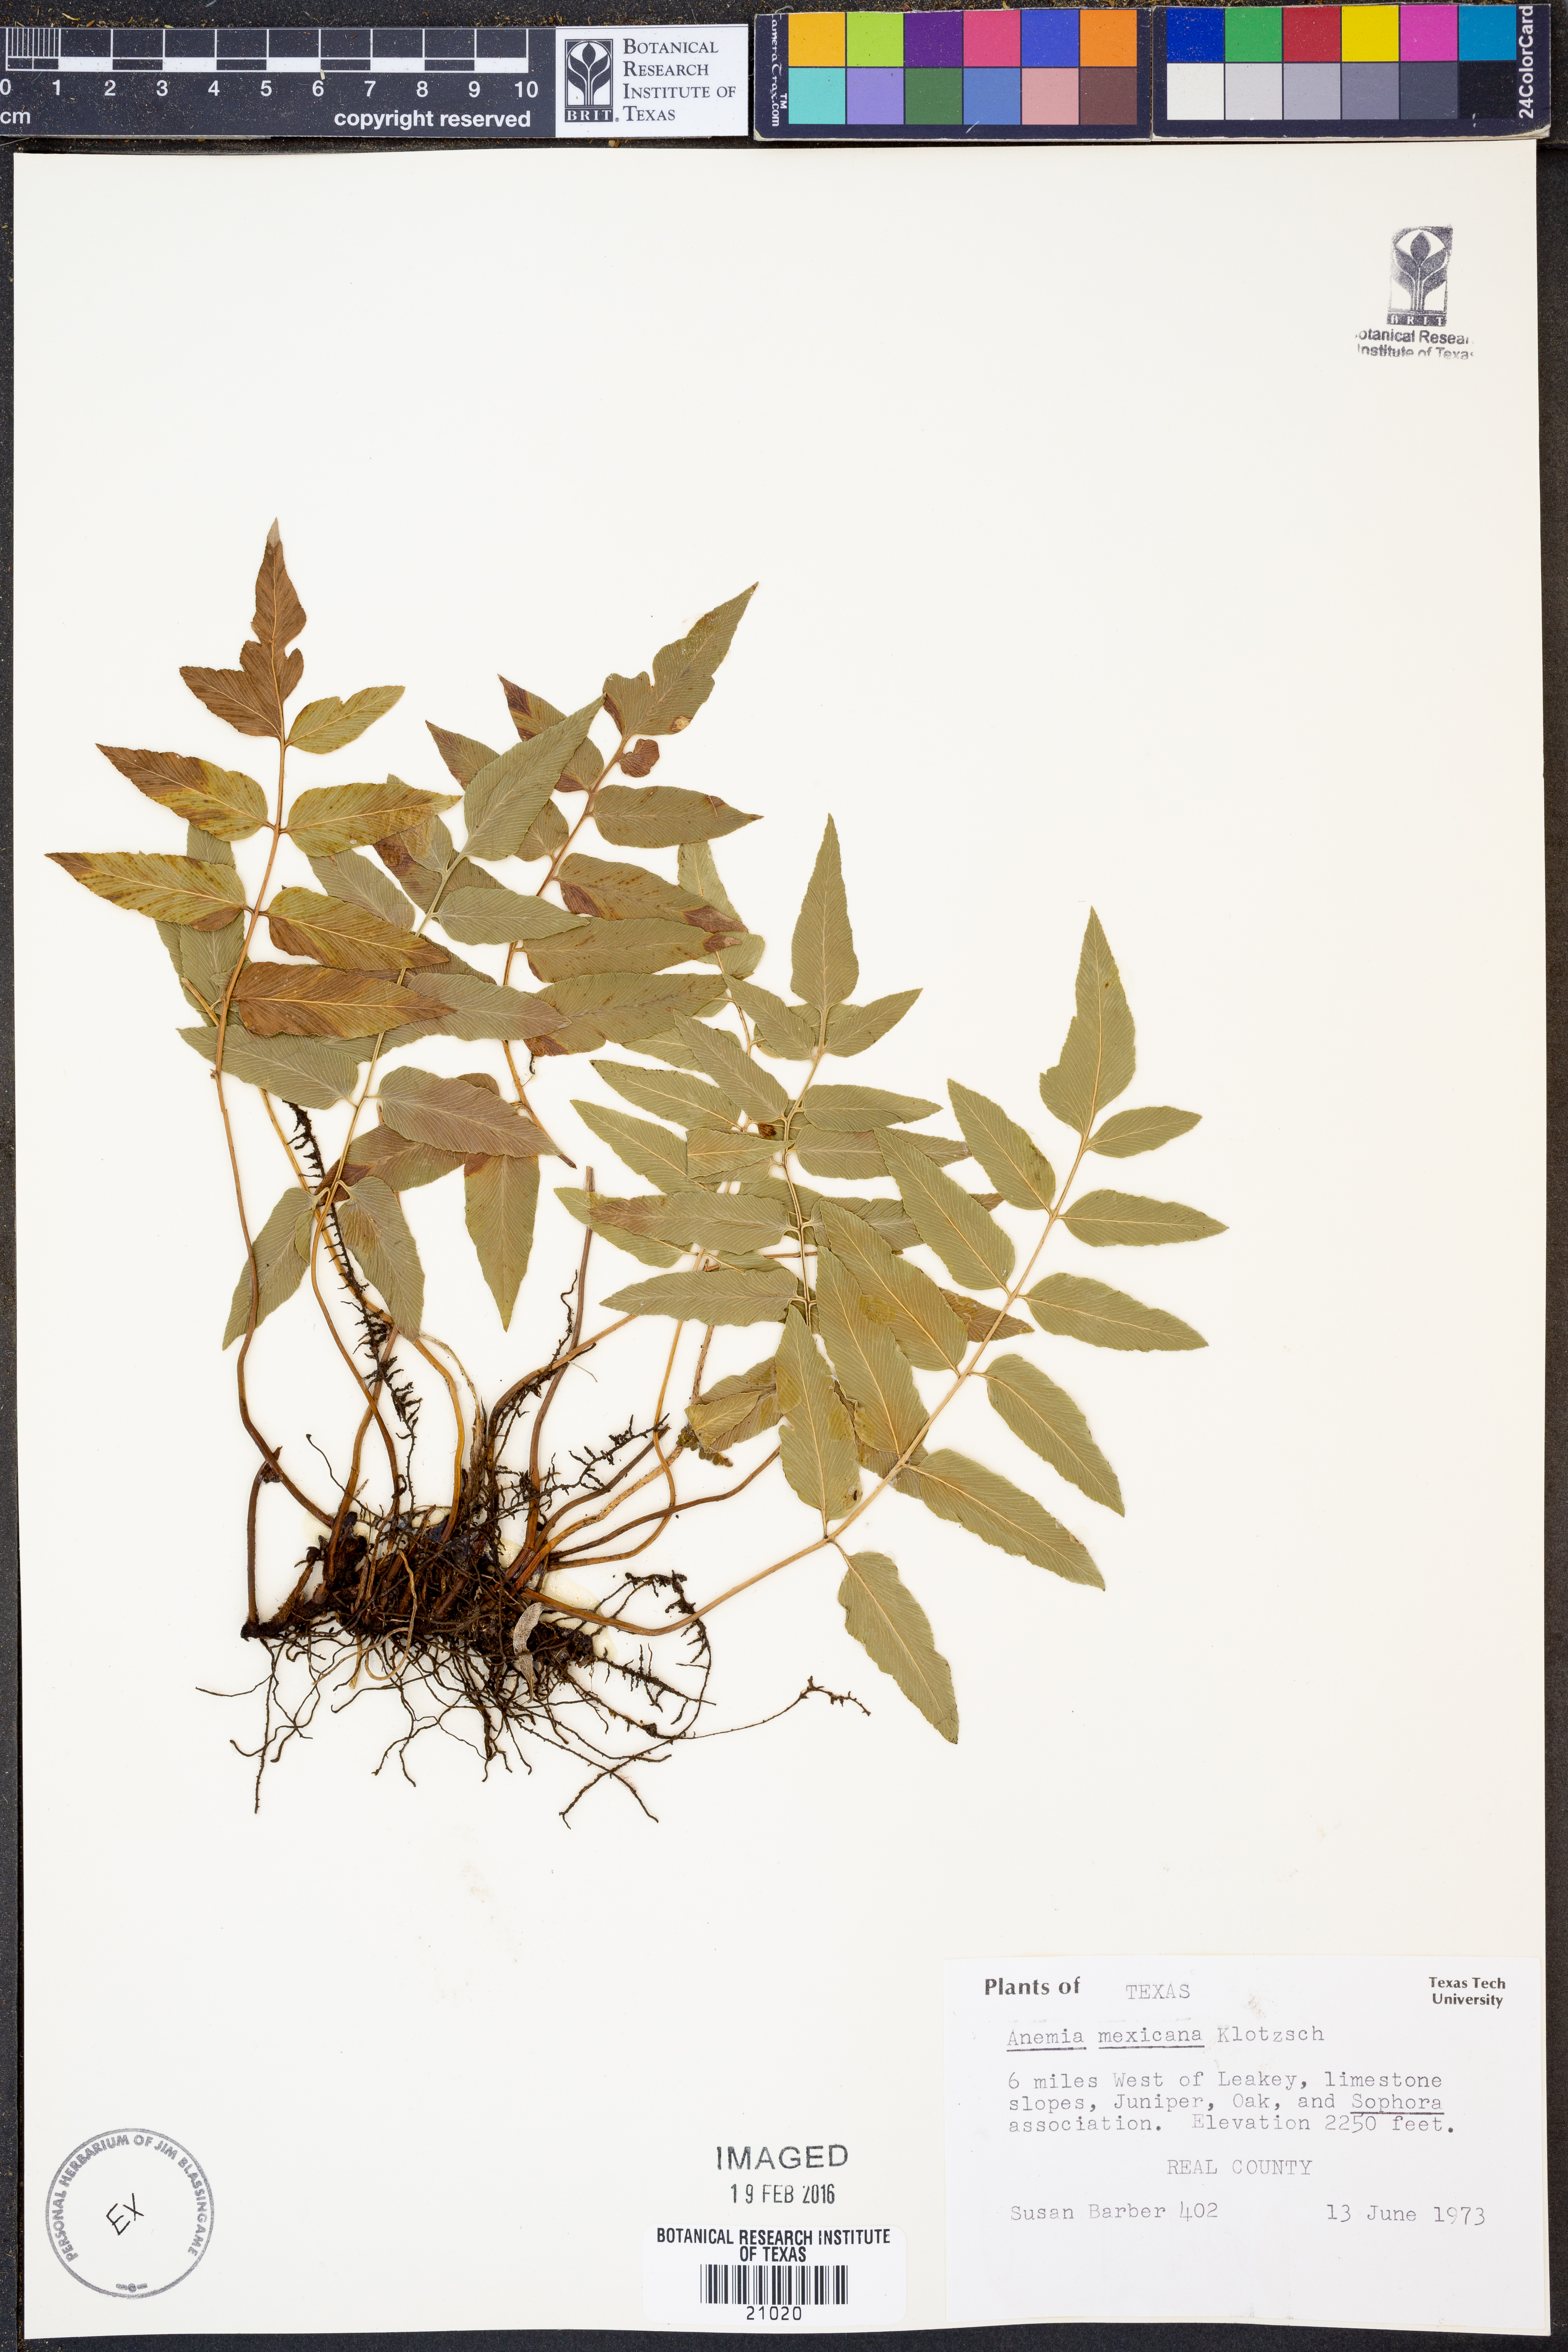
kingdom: Plantae
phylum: Tracheophyta
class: Polypodiopsida
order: Schizaeales
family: Anemiaceae
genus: Anemia
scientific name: Anemia mexicana
